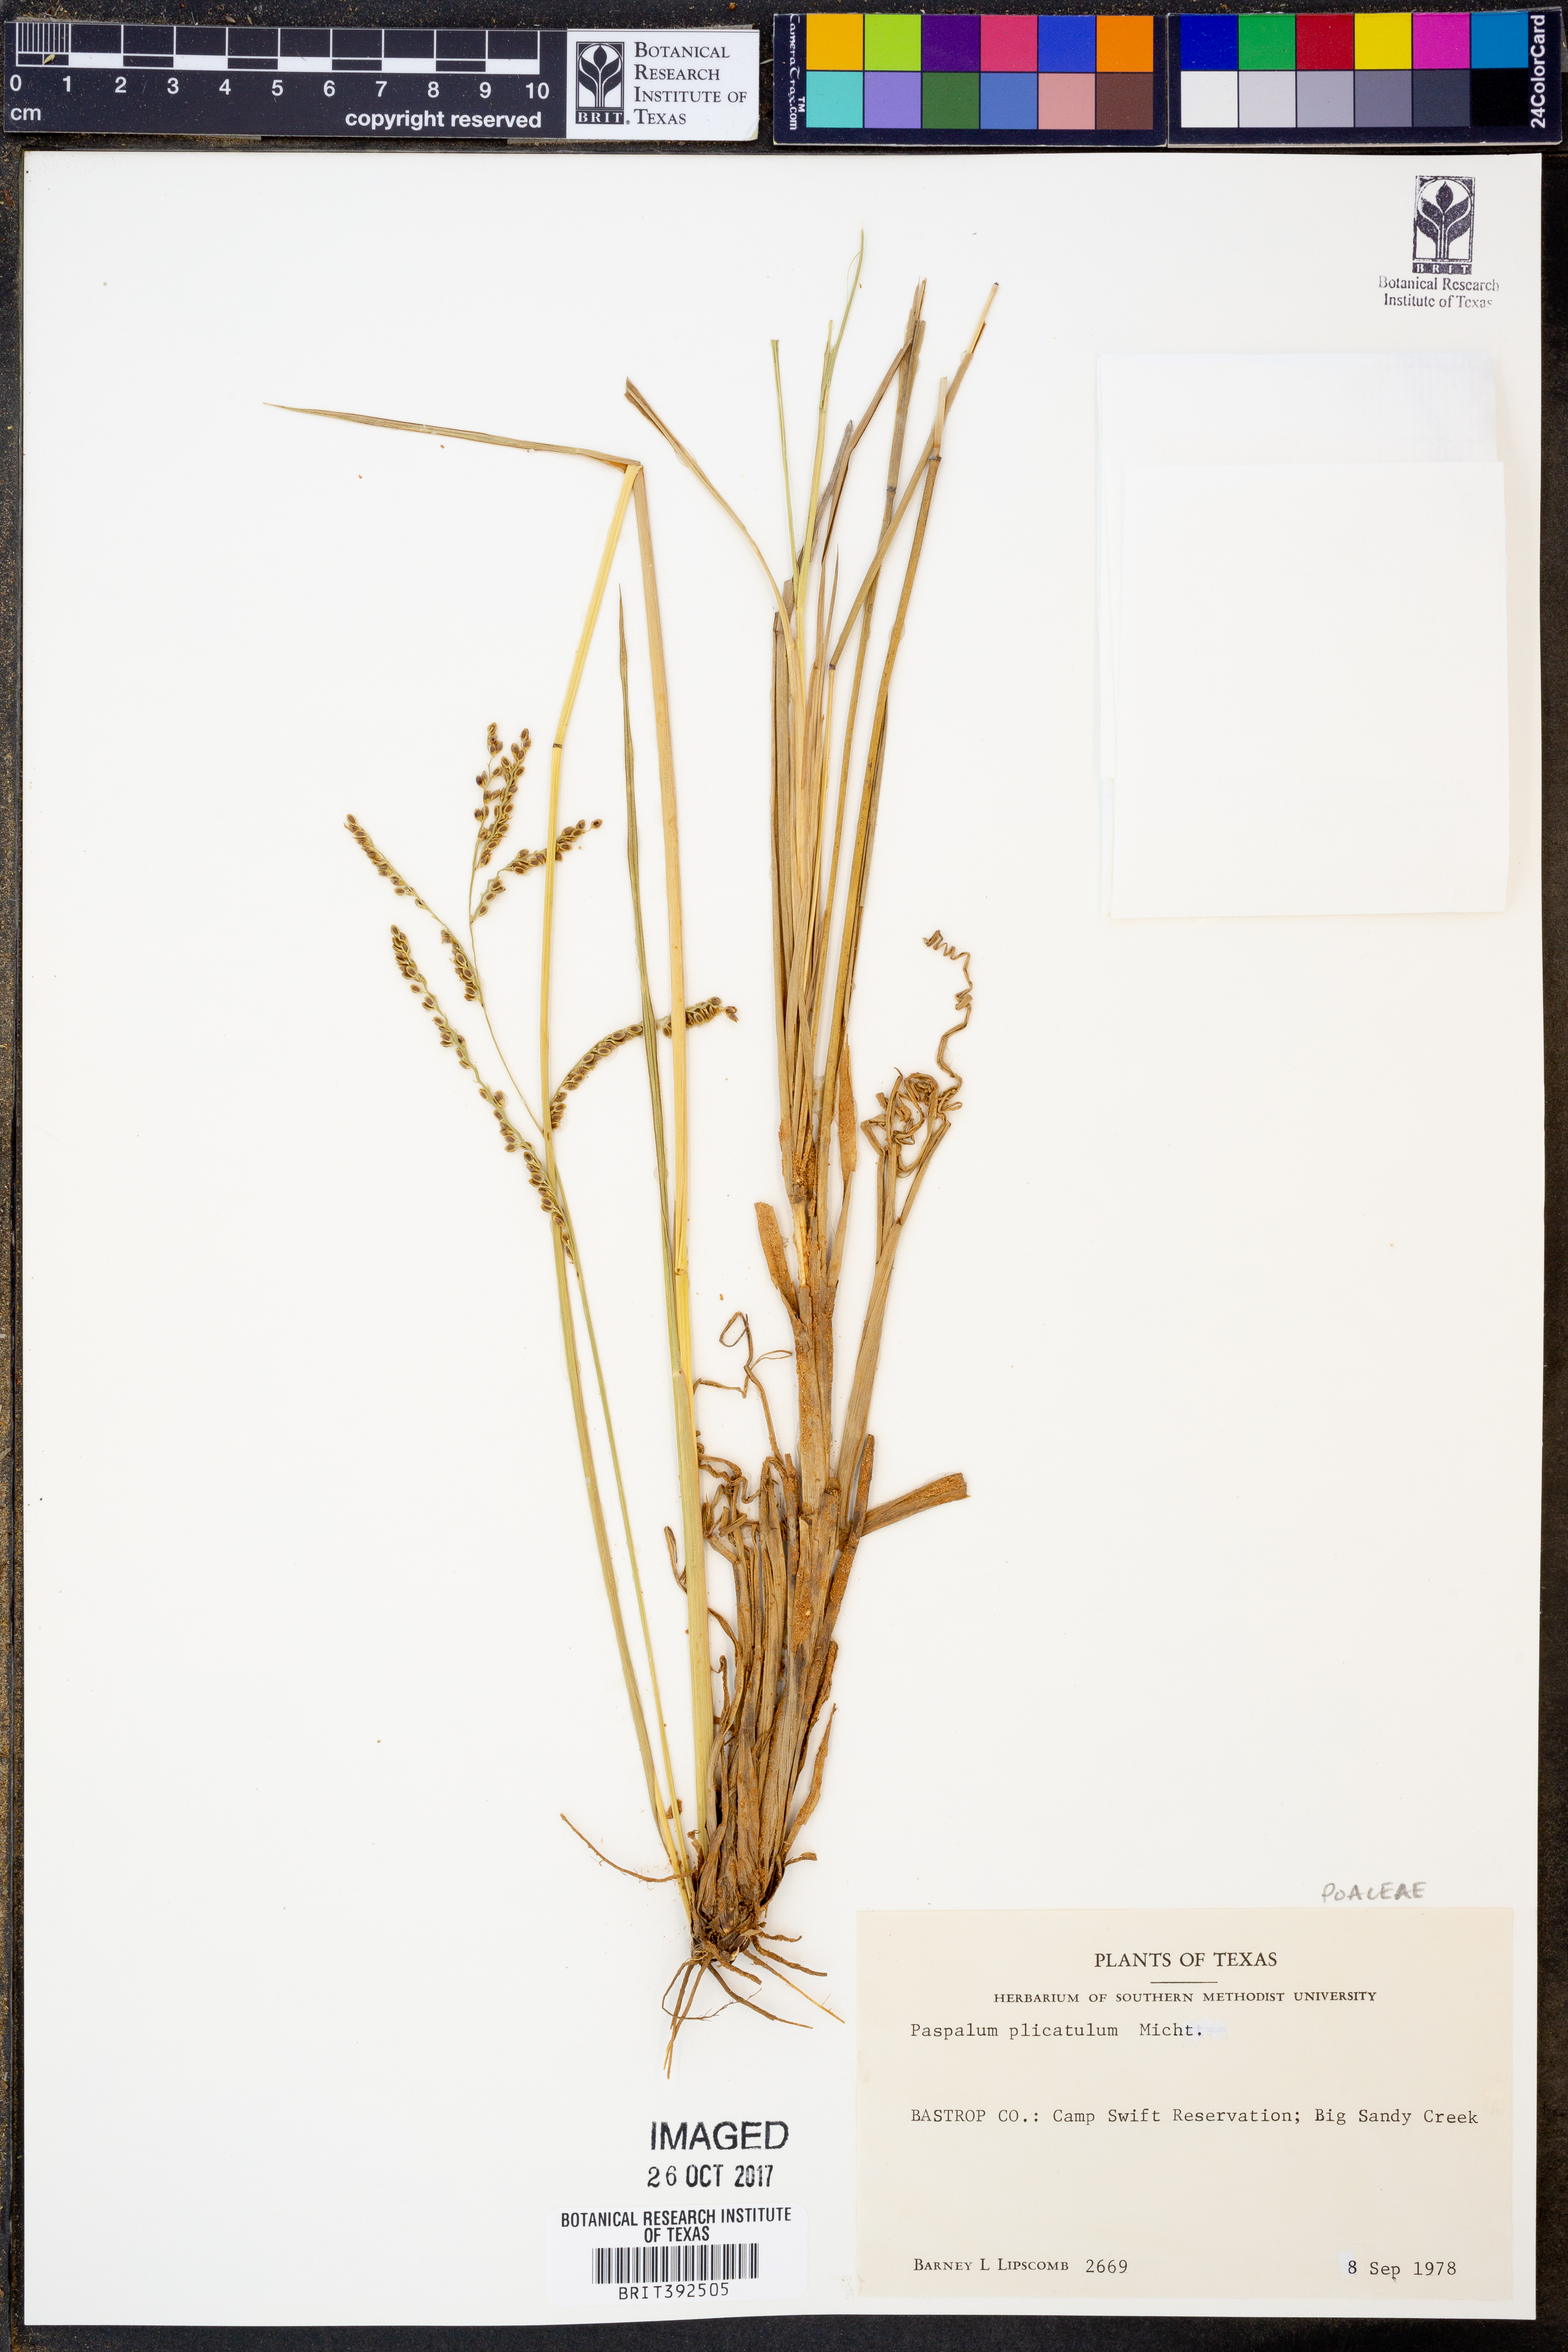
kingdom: Plantae
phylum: Tracheophyta
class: Liliopsida
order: Poales
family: Poaceae
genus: Paspalum
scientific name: Paspalum plicatulum
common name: Top paspalum
